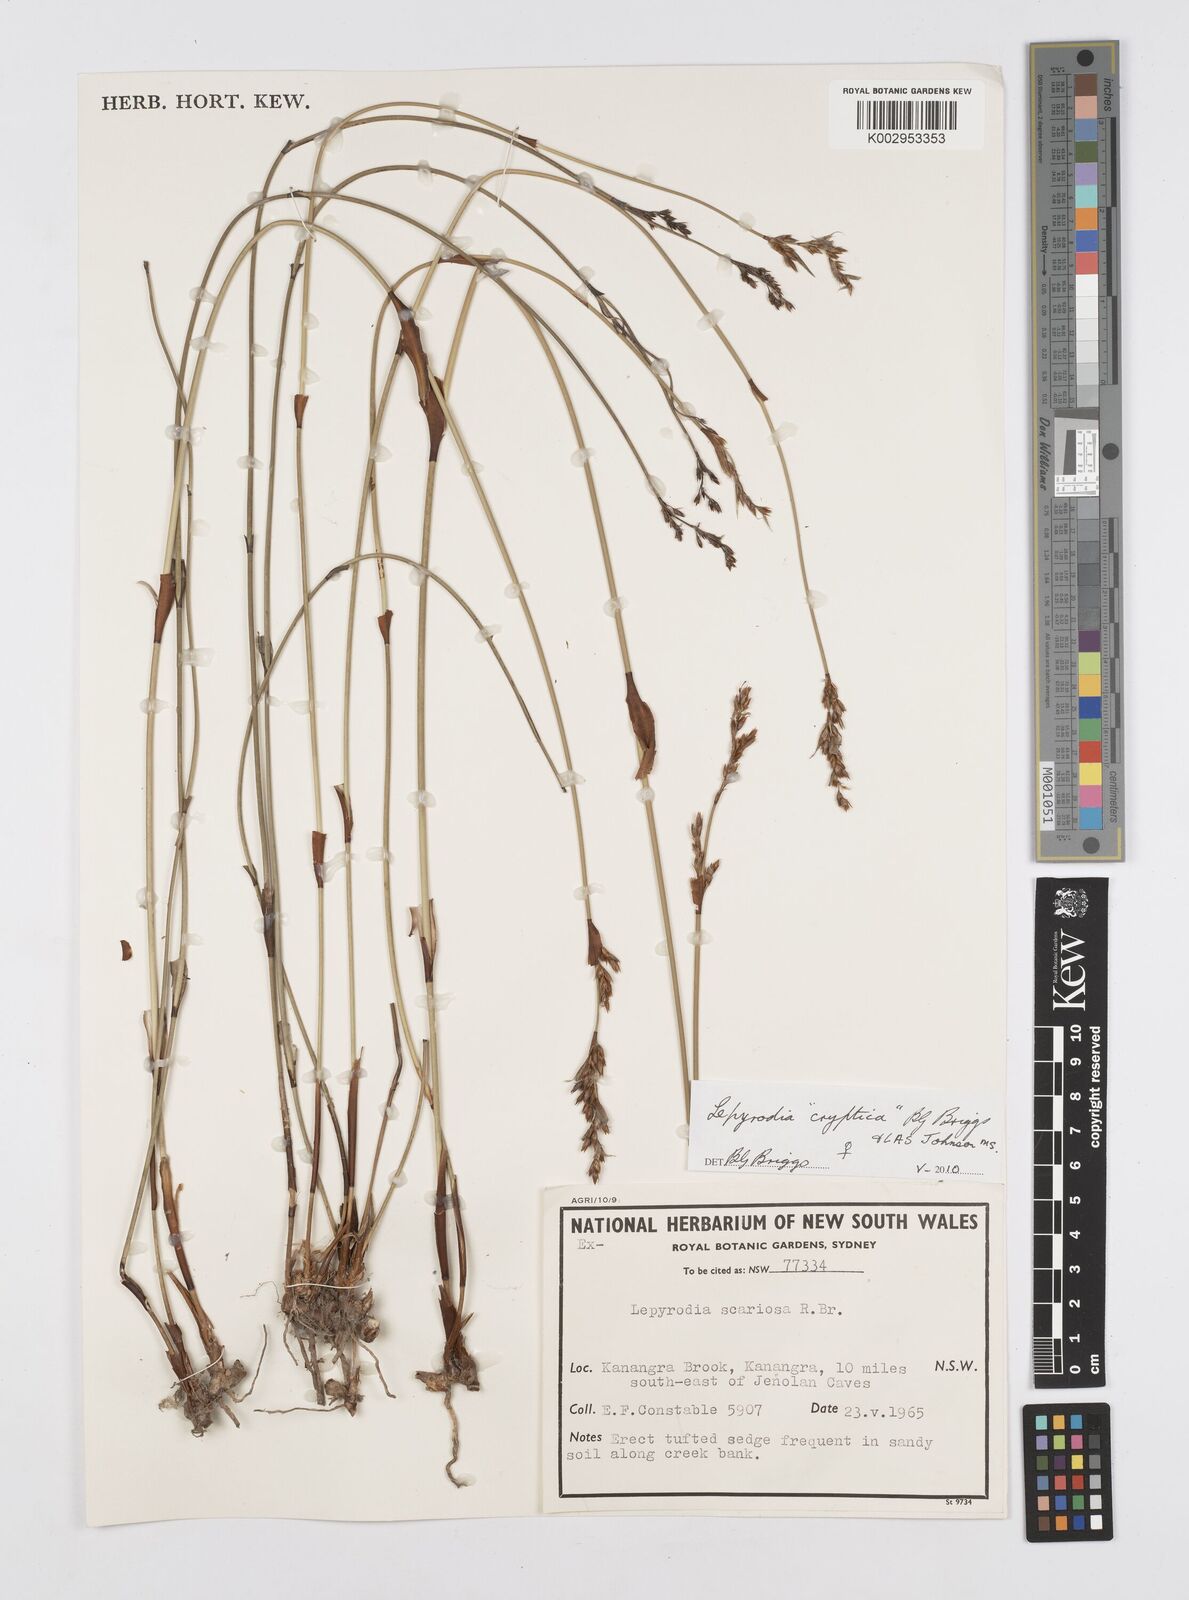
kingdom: Plantae
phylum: Tracheophyta
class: Liliopsida
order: Poales
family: Restionaceae
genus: Lepyrodia
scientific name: Lepyrodia cryptica
